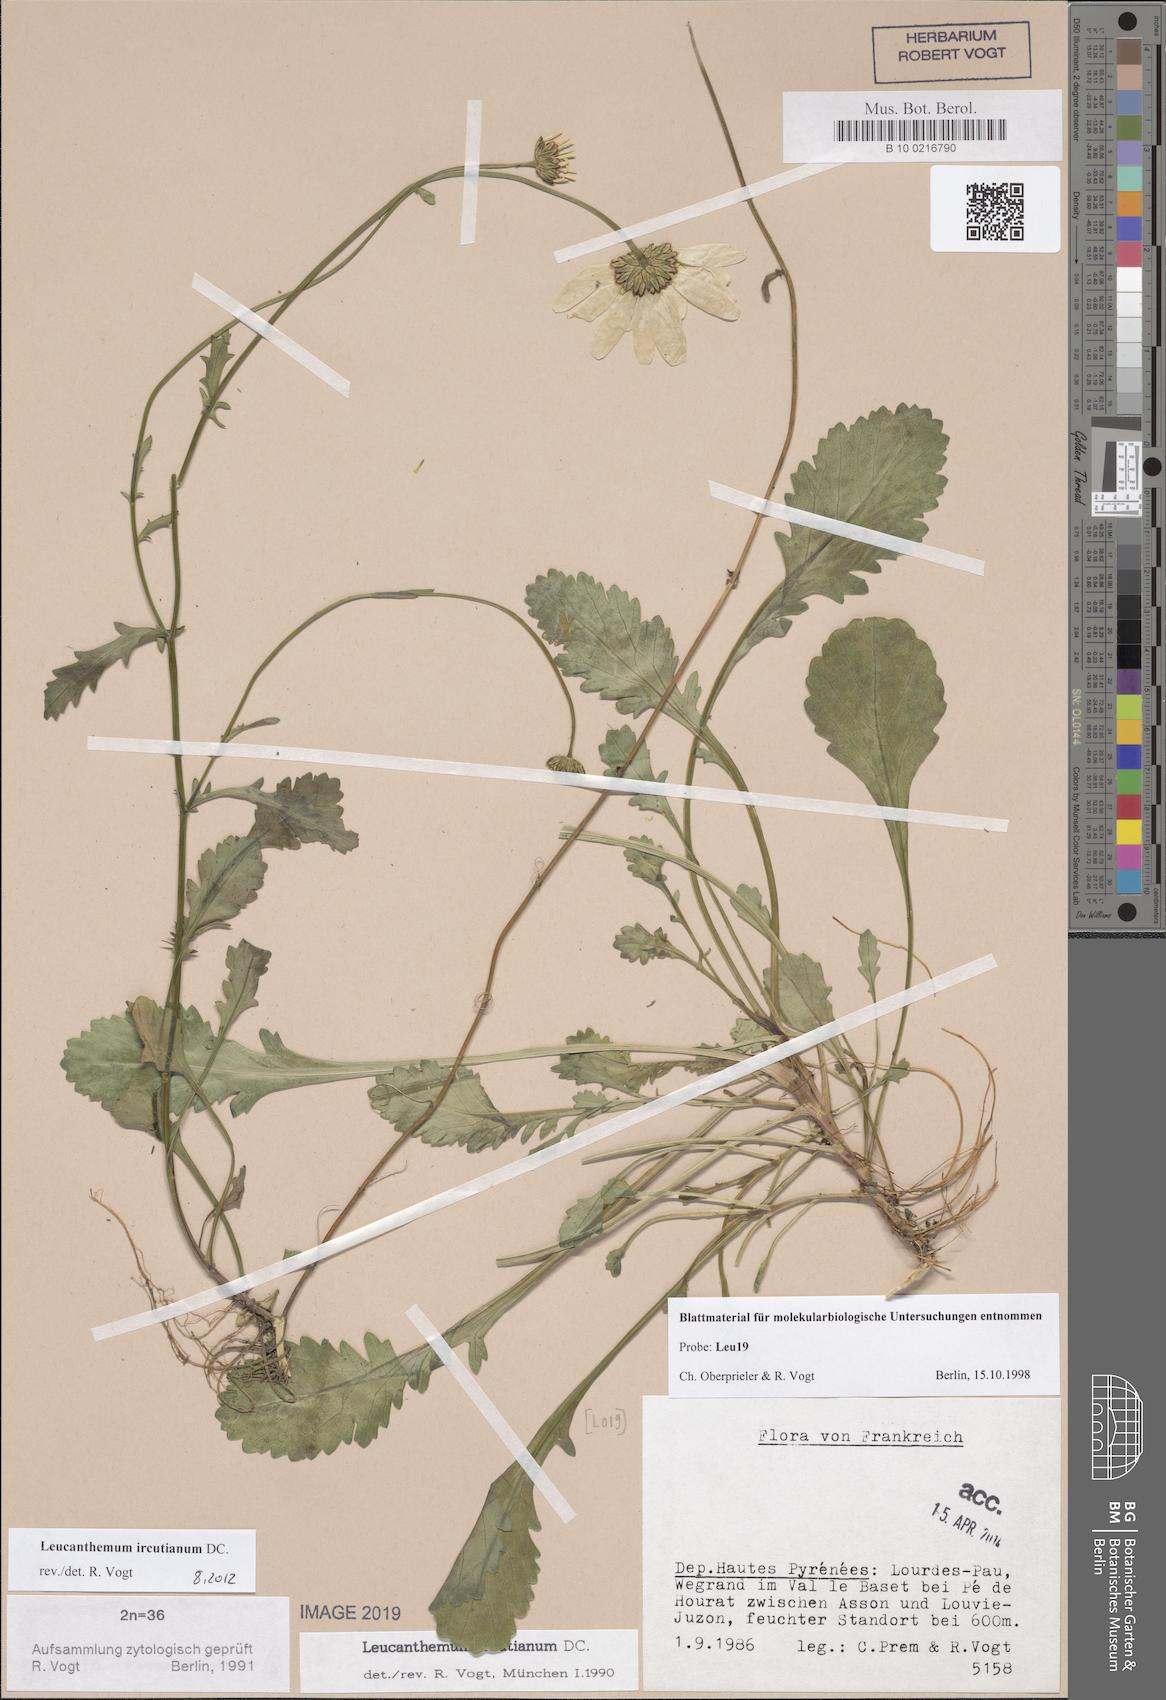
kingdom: Plantae
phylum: Tracheophyta
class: Magnoliopsida
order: Asterales
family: Asteraceae
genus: Leucanthemum
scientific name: Leucanthemum ircutianum
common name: Daisy
